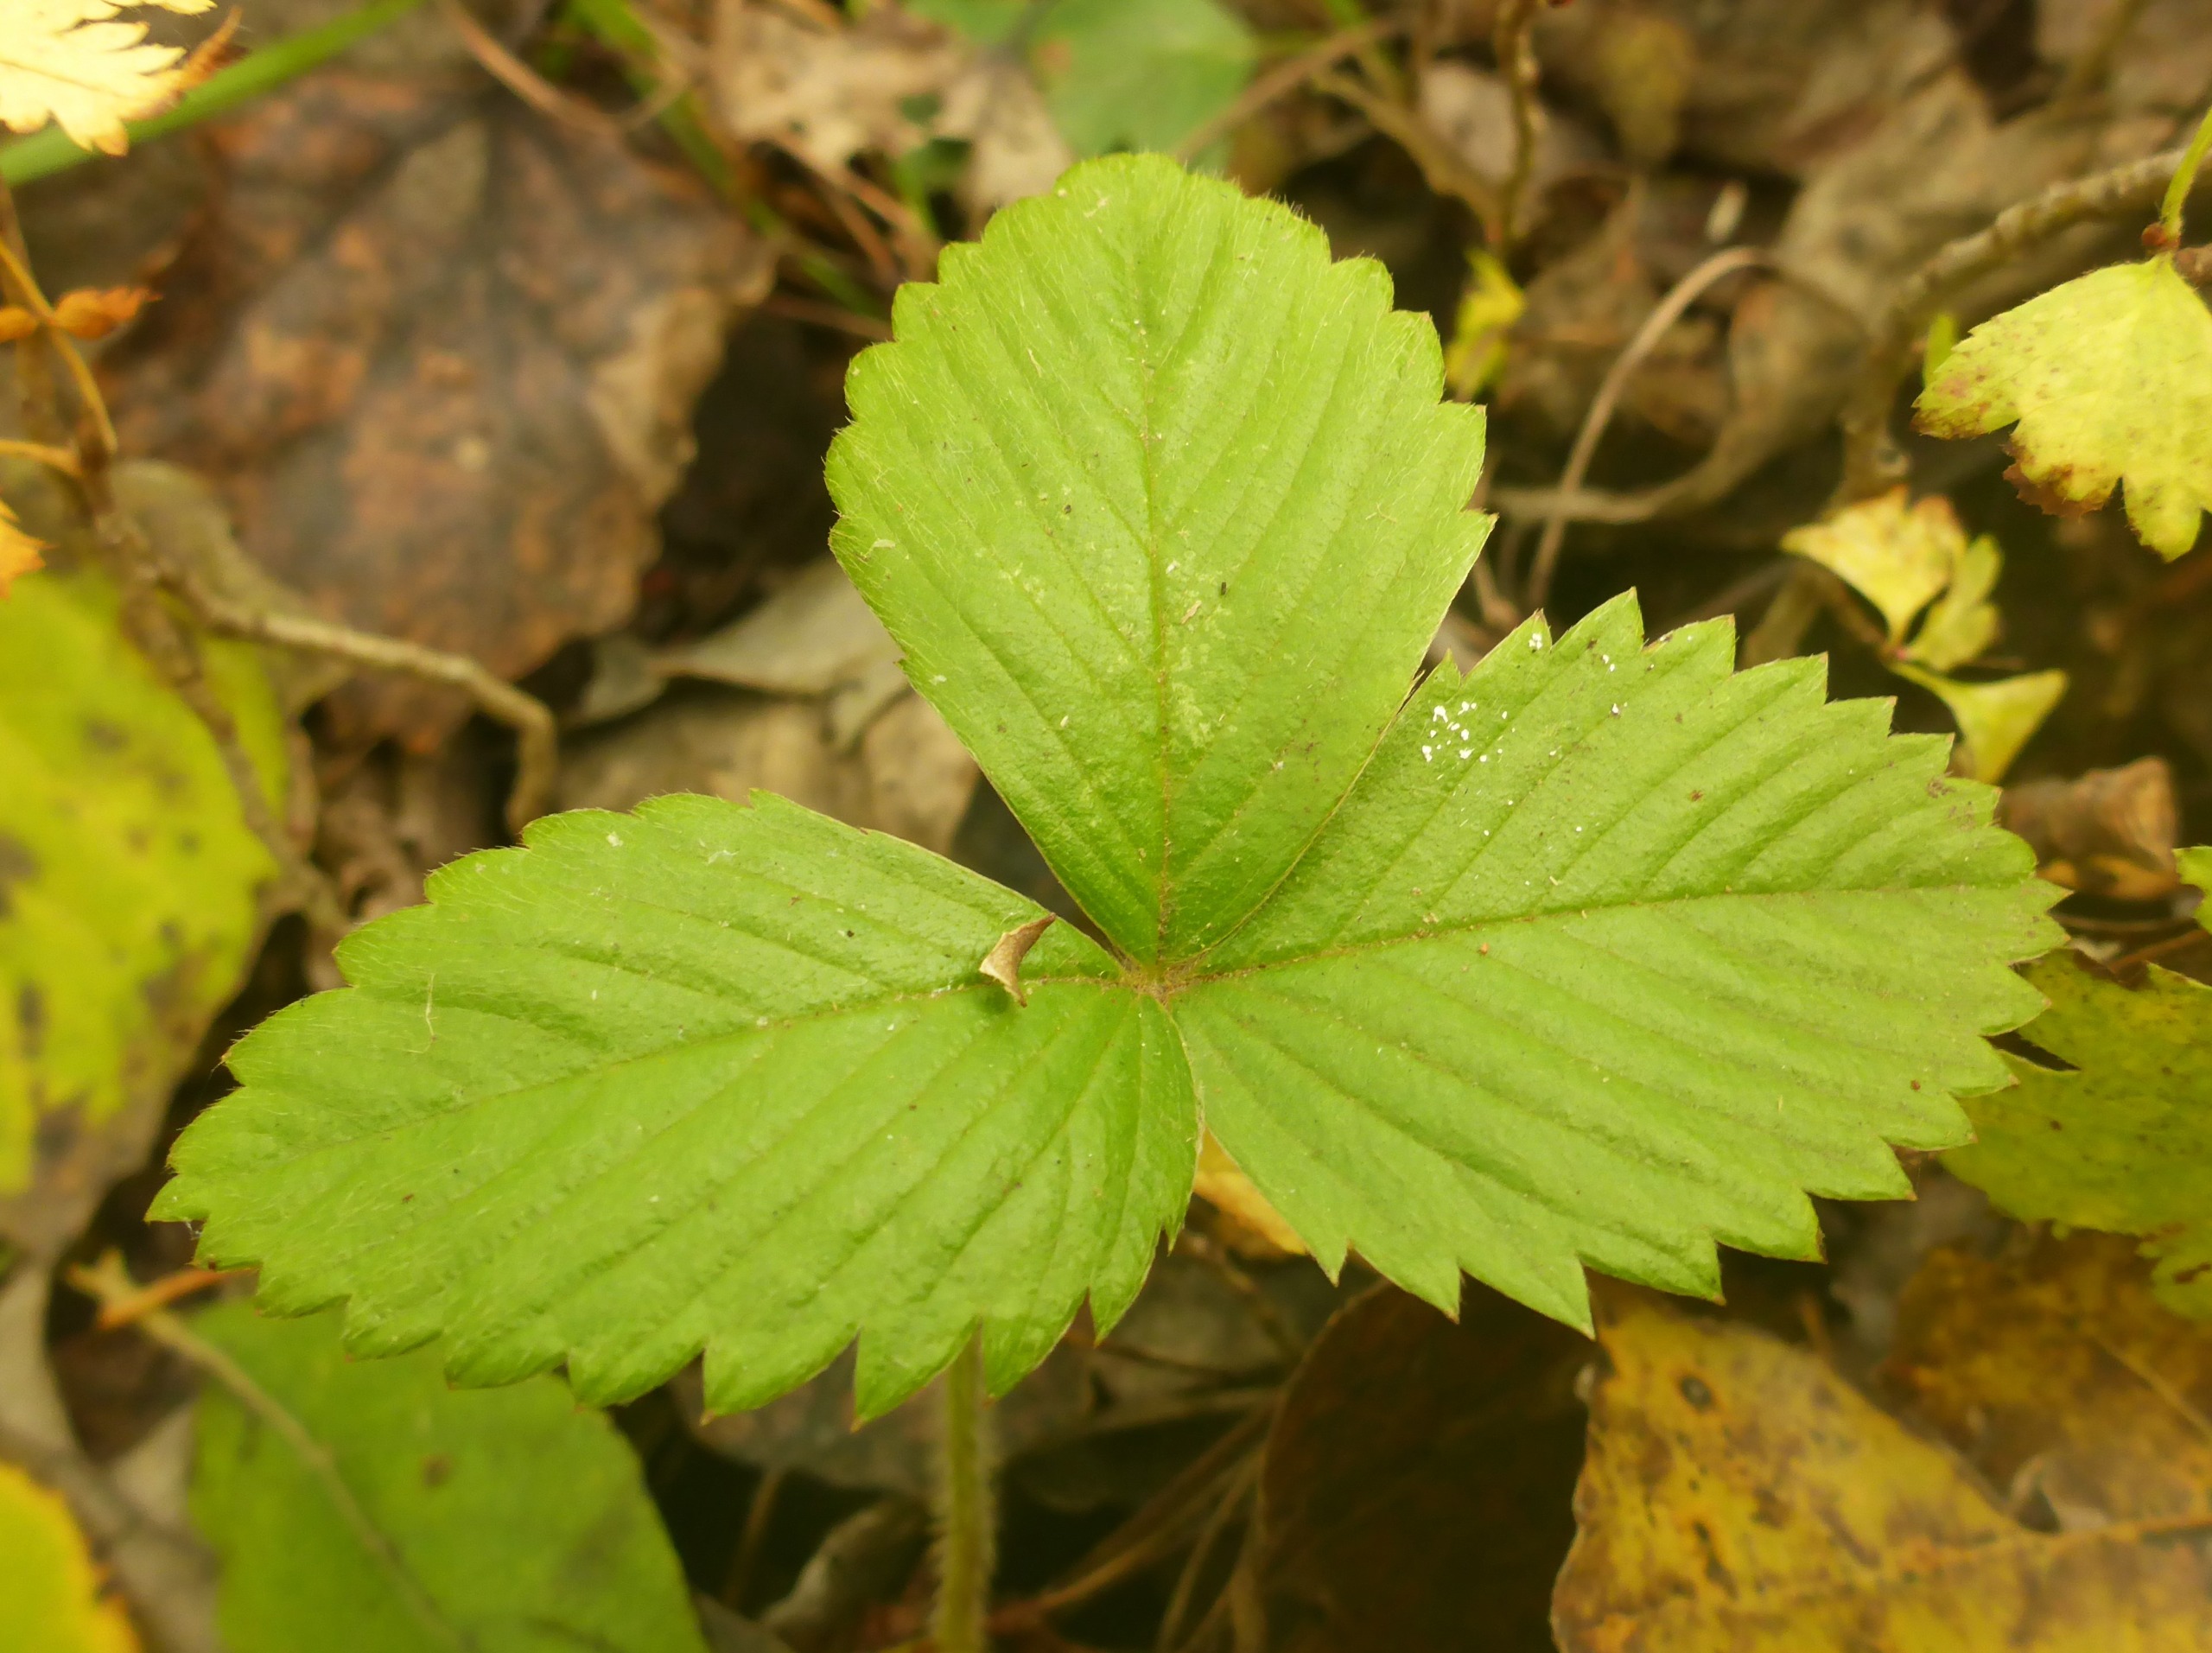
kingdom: Plantae
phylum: Tracheophyta
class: Magnoliopsida
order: Rosales
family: Rosaceae
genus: Fragaria
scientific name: Fragaria vesca
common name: Skov-jordbær
